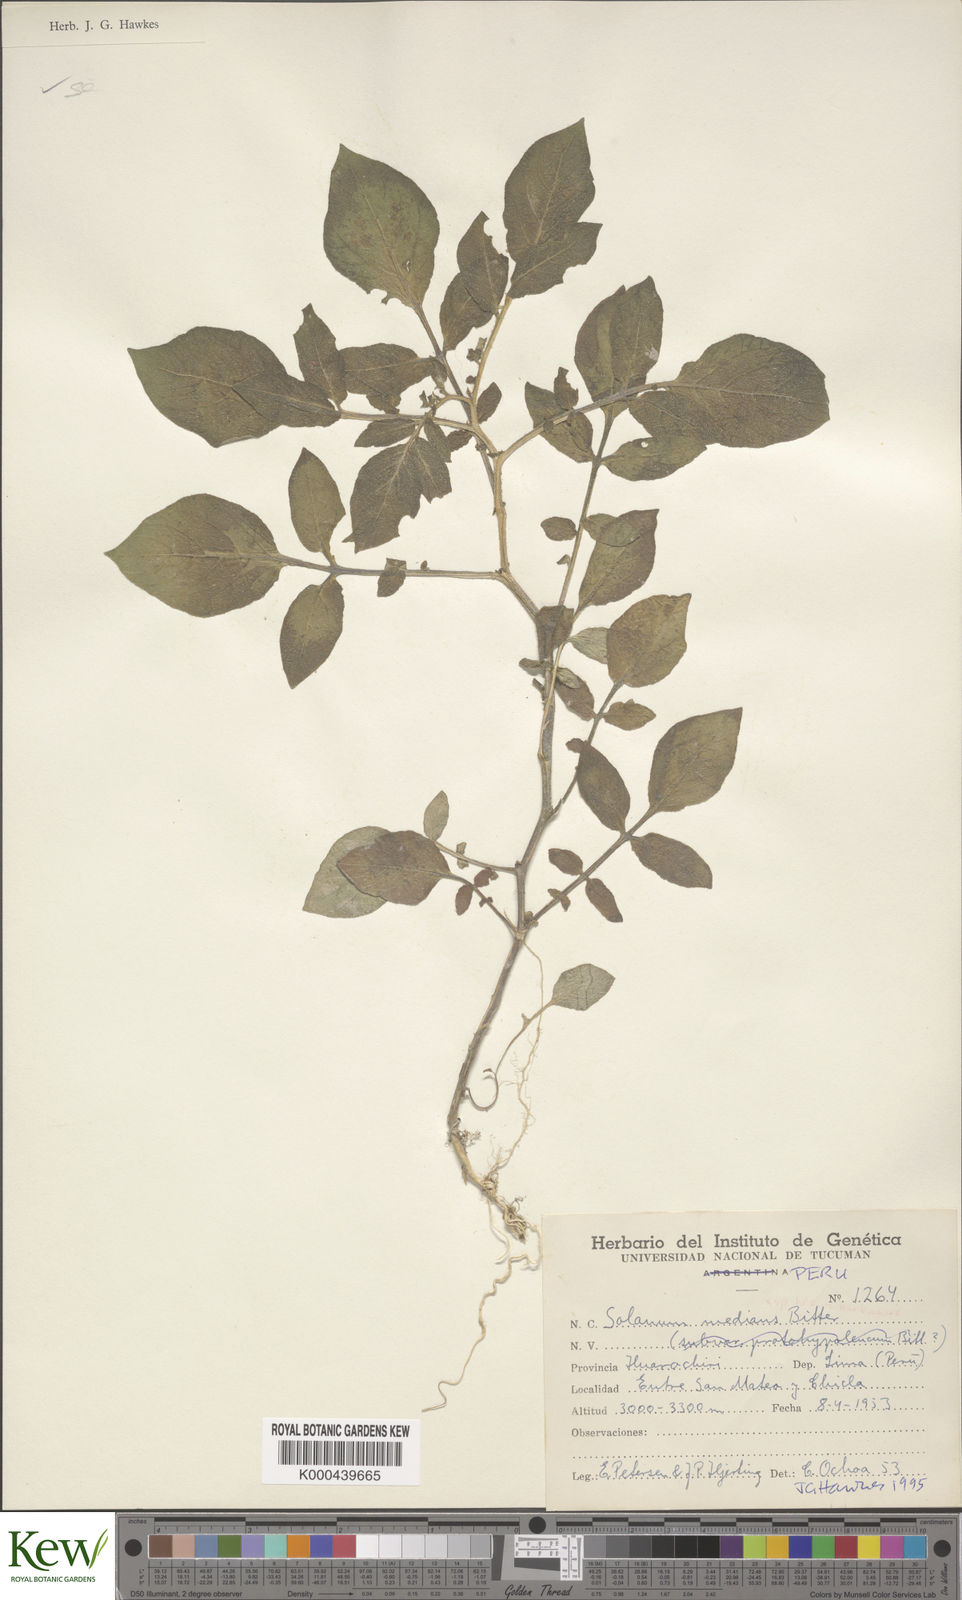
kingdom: Plantae
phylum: Tracheophyta
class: Magnoliopsida
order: Solanales
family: Solanaceae
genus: Solanum
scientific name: Solanum medians
